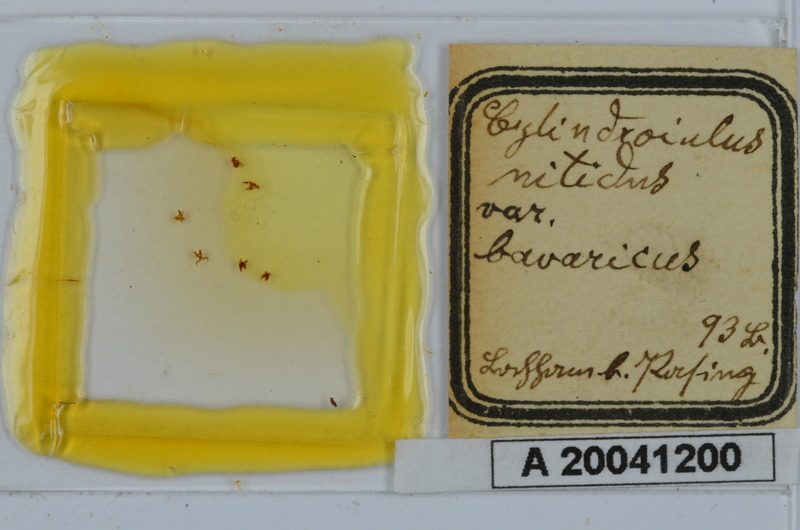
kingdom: Animalia
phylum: Arthropoda
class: Diplopoda
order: Julida
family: Julidae
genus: Allajulus
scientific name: Allajulus nitidus
